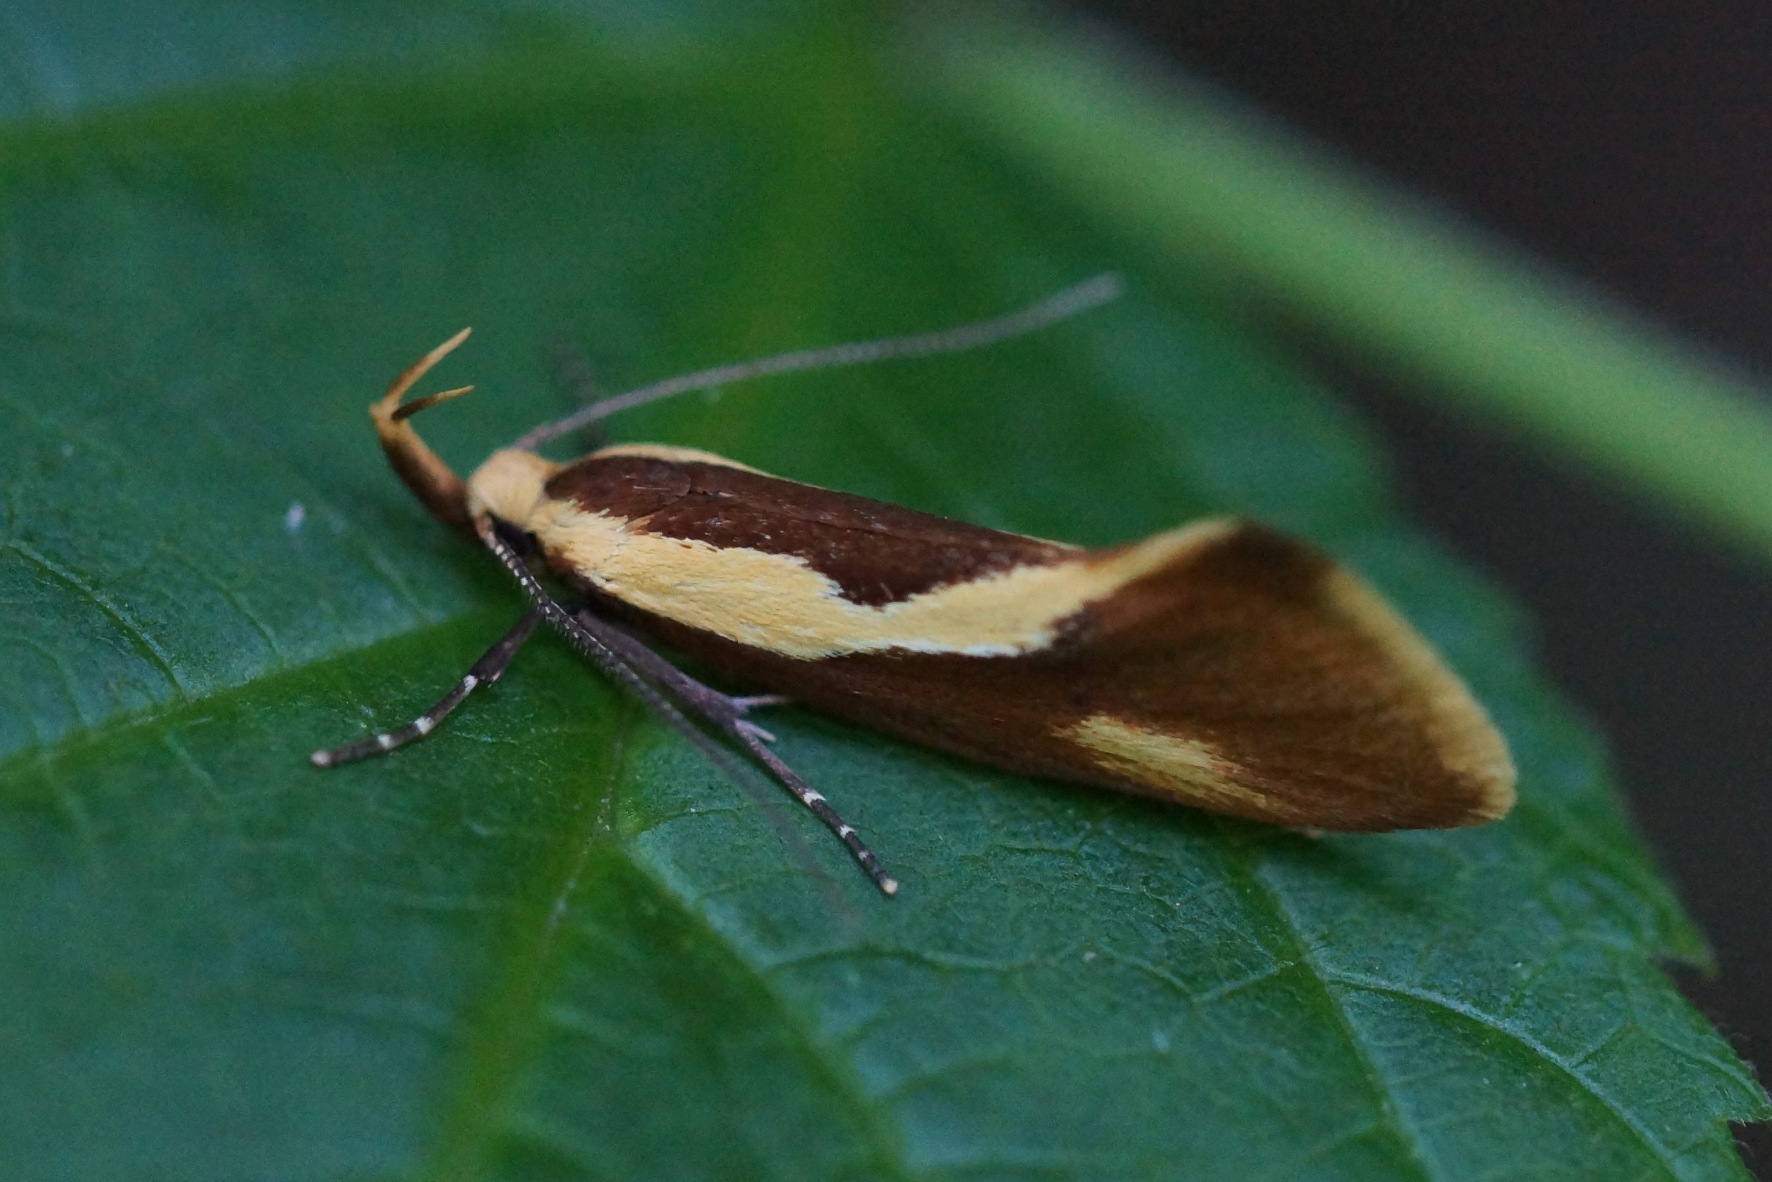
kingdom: Animalia
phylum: Arthropoda
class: Insecta
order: Lepidoptera
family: Oecophoridae
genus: Harpella
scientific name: Harpella forficella
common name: Kæmpeprydvinge
